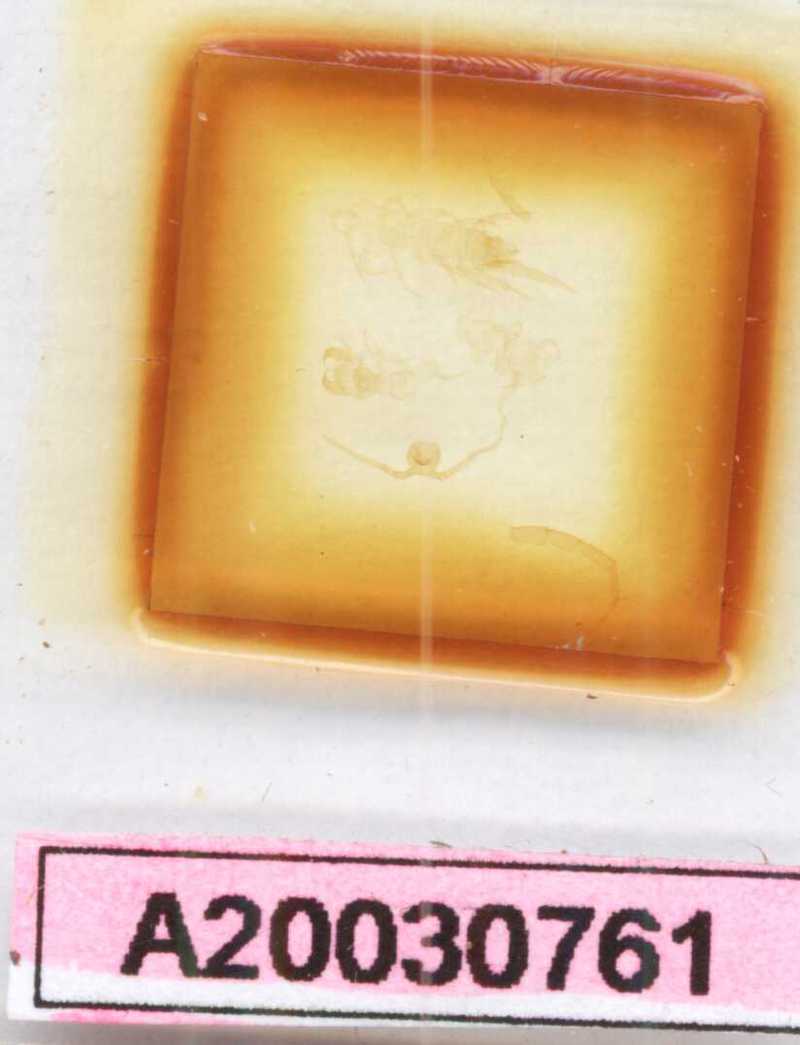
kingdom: Animalia
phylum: Arthropoda
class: Chilopoda
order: Lithobiomorpha
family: Lithobiidae
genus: Lithobius
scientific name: Lithobius micropodus
